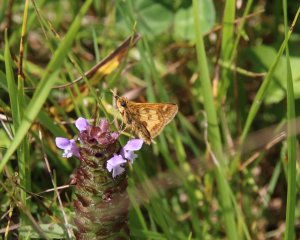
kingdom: Animalia
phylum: Arthropoda
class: Insecta
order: Lepidoptera
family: Hesperiidae
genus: Polites
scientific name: Polites coras
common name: Peck's Skipper
